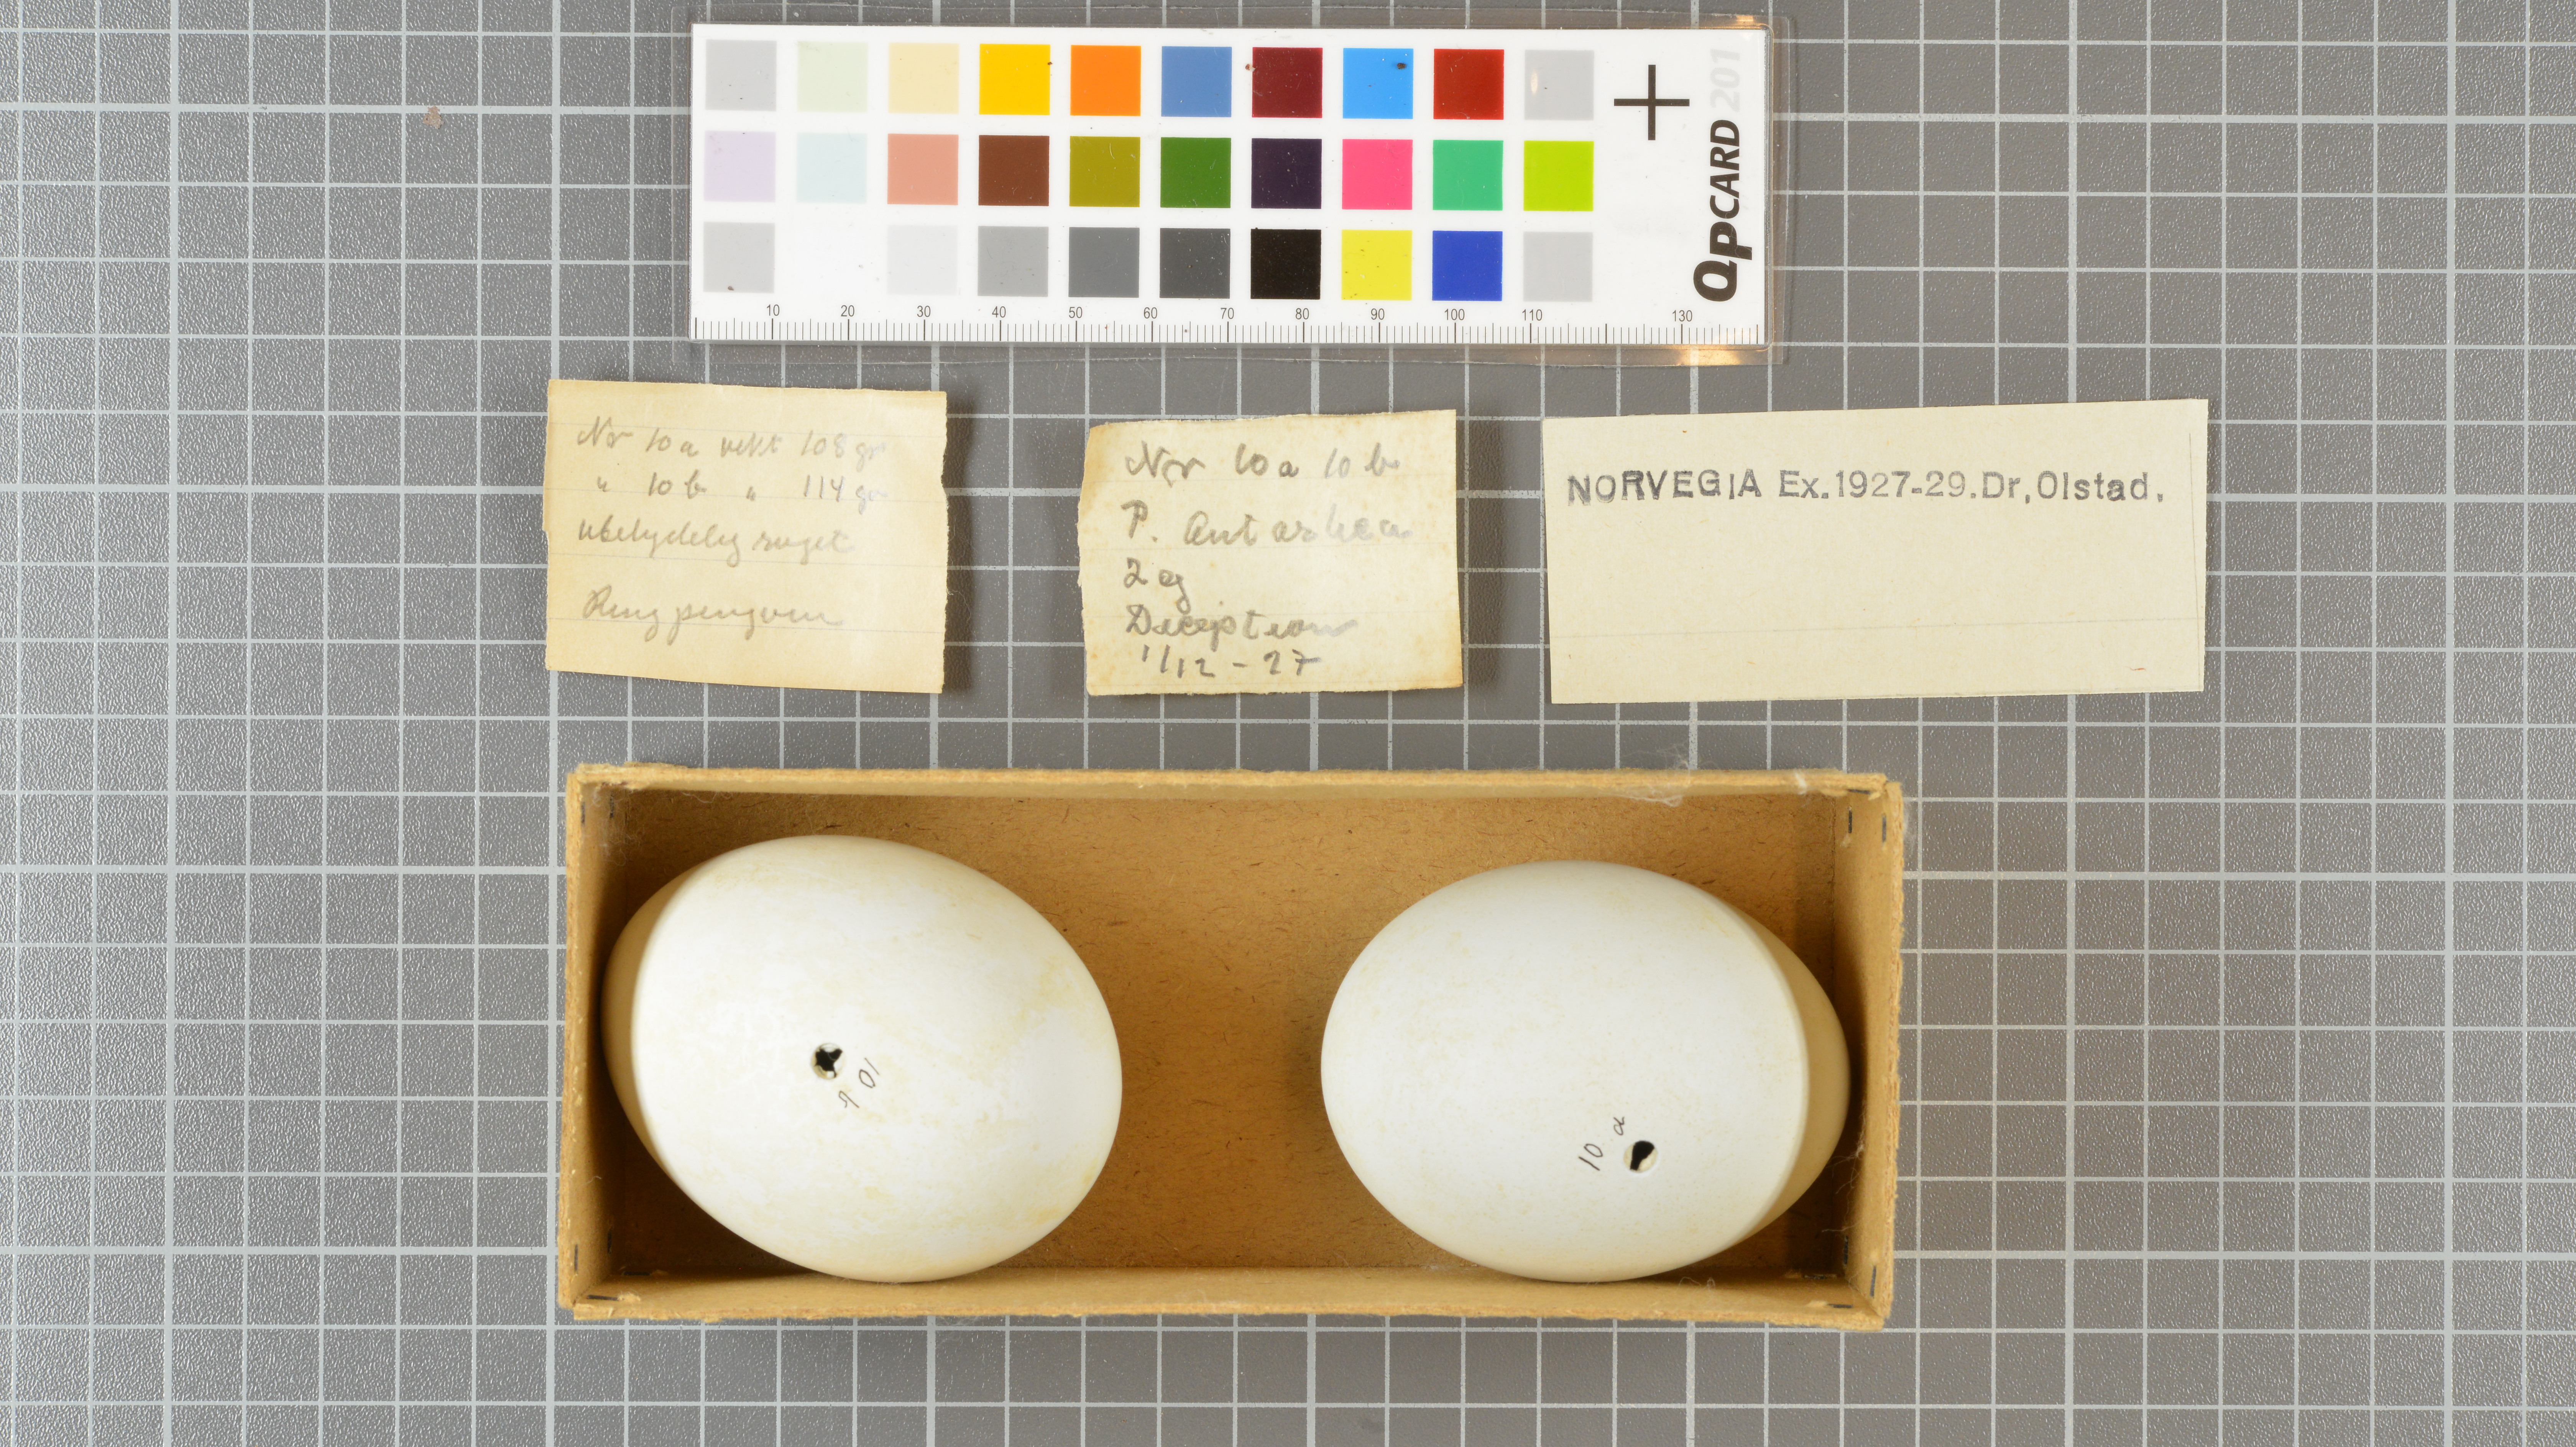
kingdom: Animalia
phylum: Chordata
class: Aves
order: Sphenisciformes
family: Spheniscidae
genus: Pygoscelis
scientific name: Pygoscelis antarcticus
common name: Chinstrap penguin
